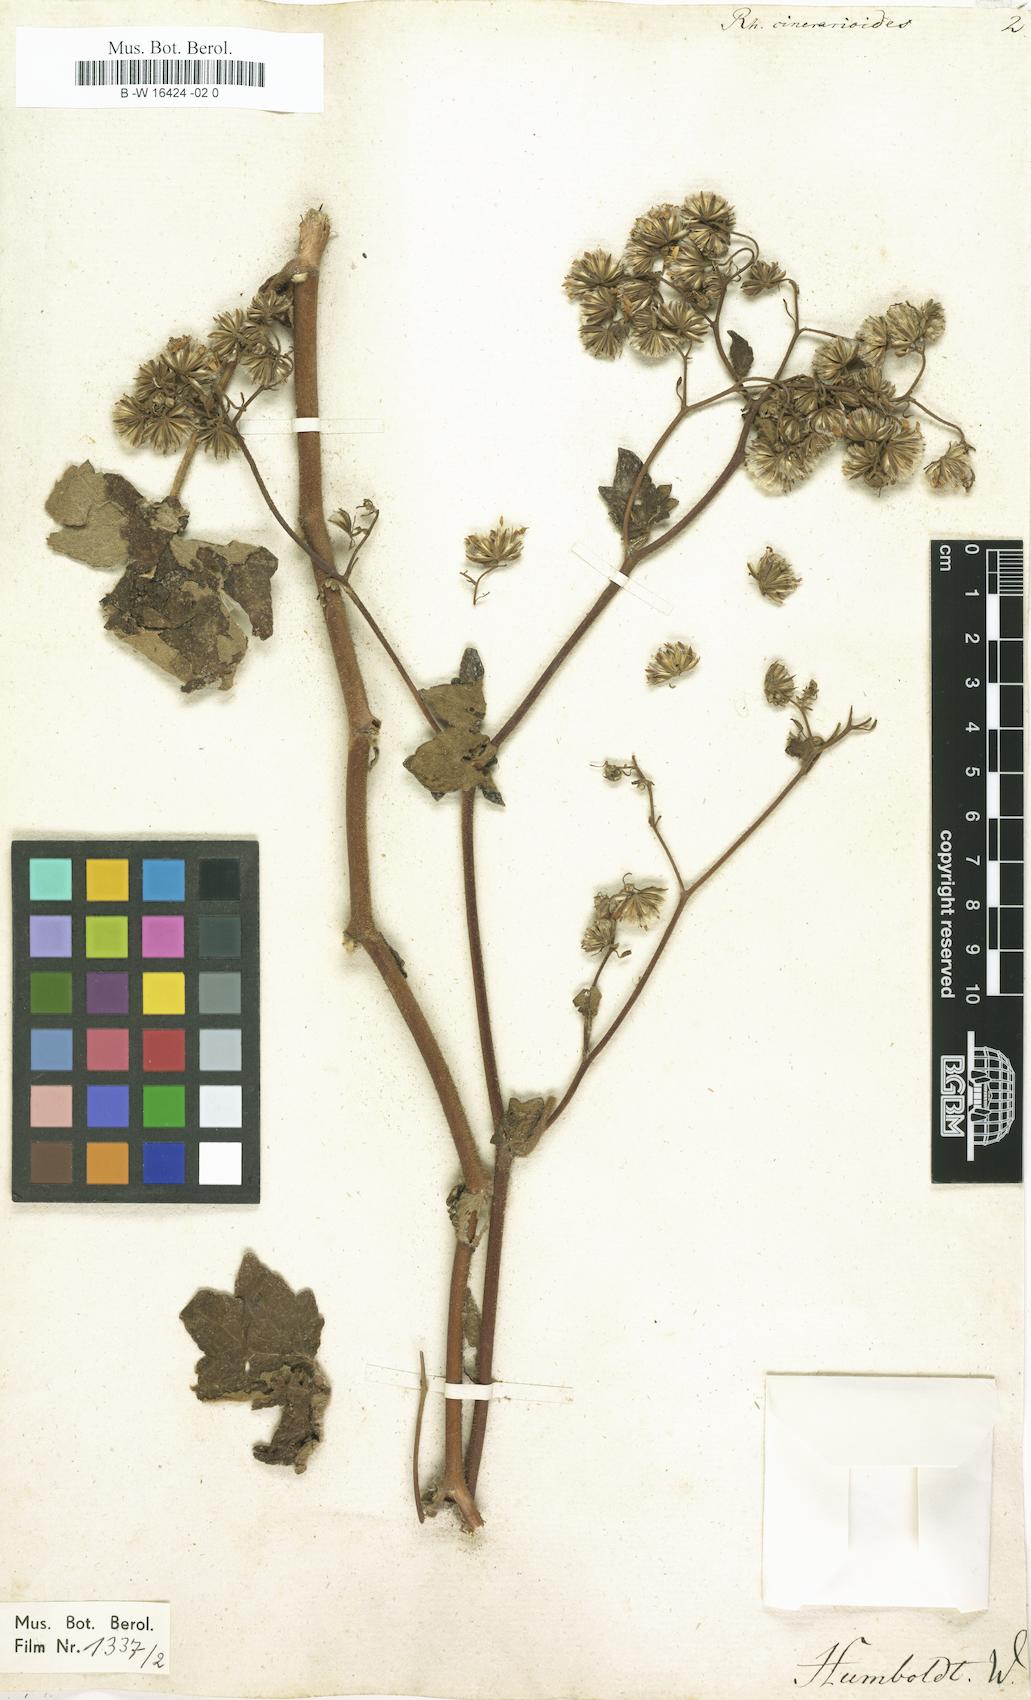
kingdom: Plantae
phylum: Tracheophyta
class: Magnoliopsida
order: Asterales
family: Asteraceae
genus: Jungia
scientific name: Jungia paniculata
